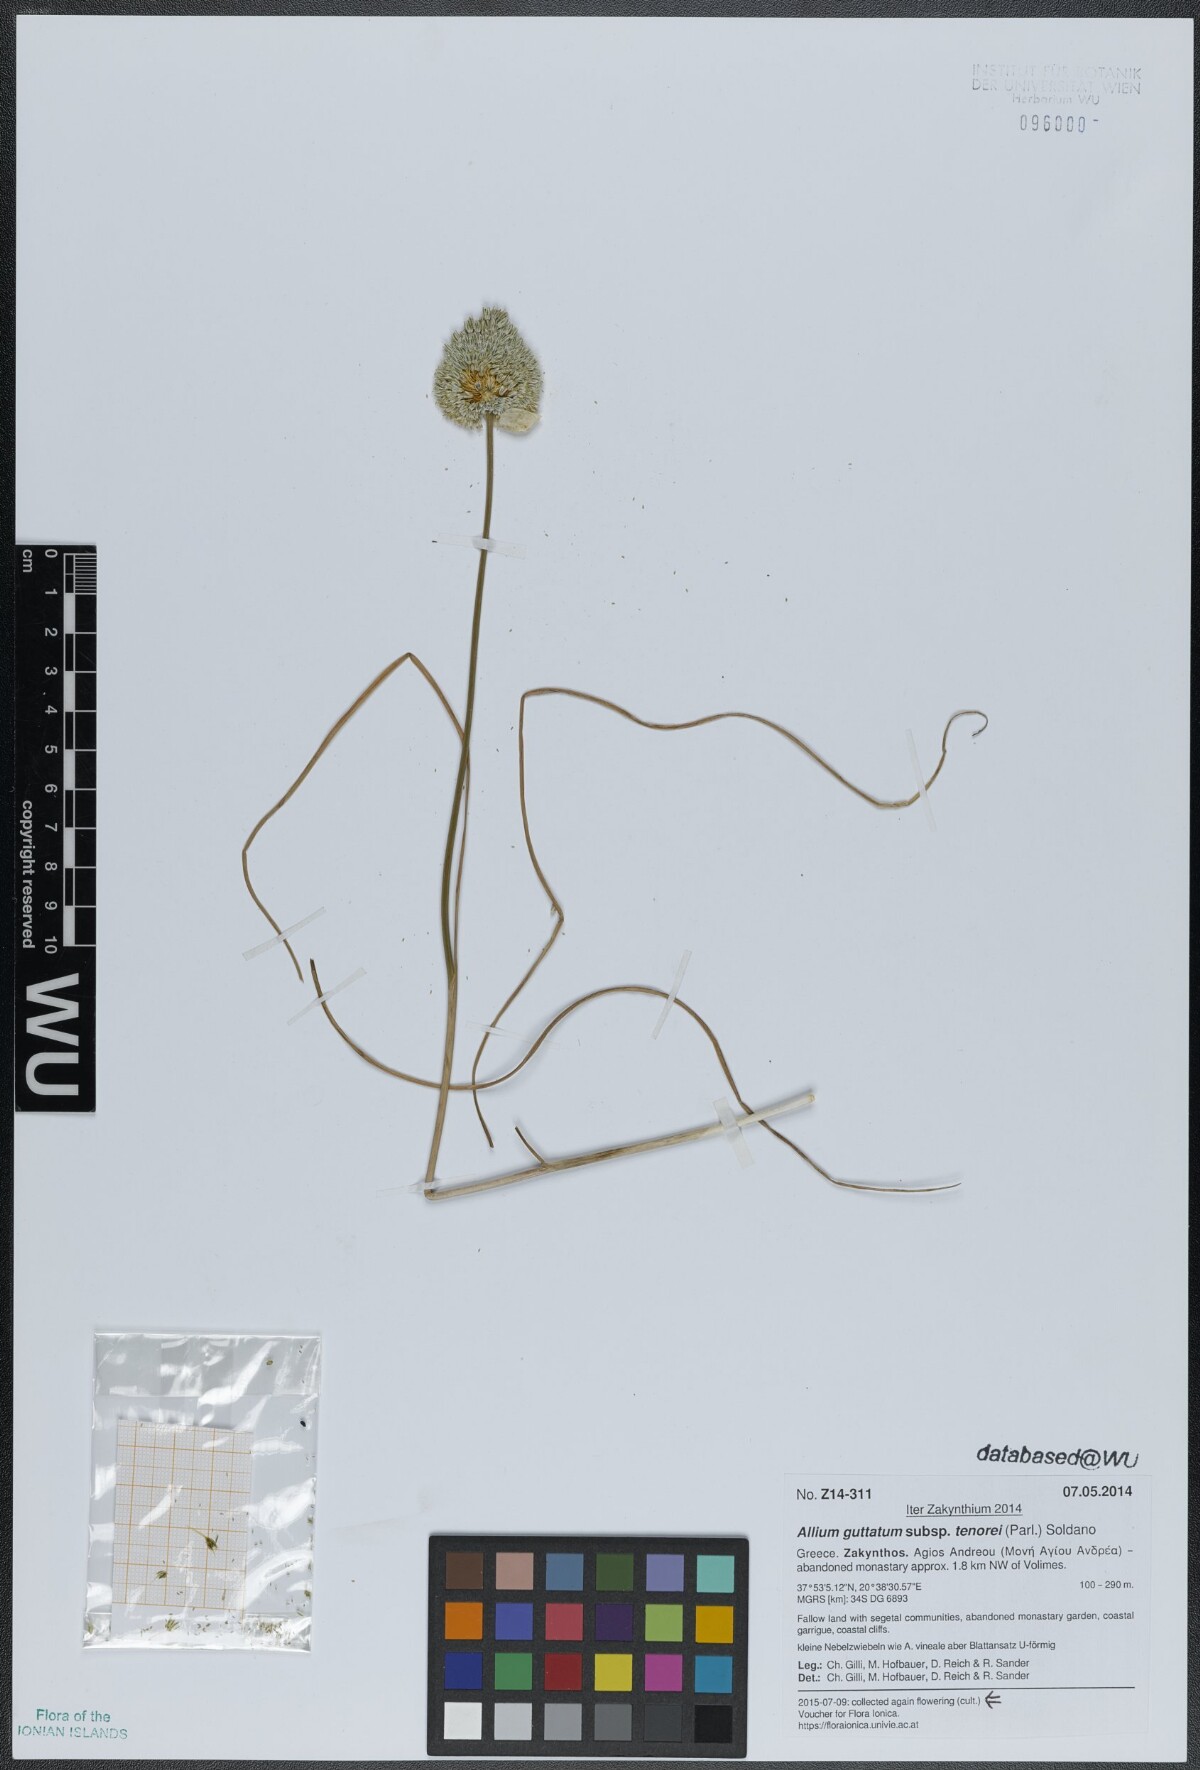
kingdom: Plantae
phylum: Tracheophyta
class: Liliopsida
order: Asparagales
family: Amaryllidaceae
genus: Allium
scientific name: Allium sardoum
